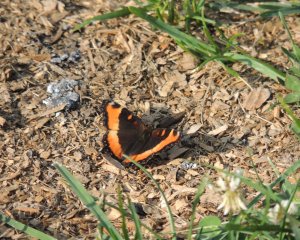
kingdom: Animalia
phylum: Arthropoda
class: Insecta
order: Lepidoptera
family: Nymphalidae
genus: Aglais
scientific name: Aglais milberti
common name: Milbert's Tortoiseshell
